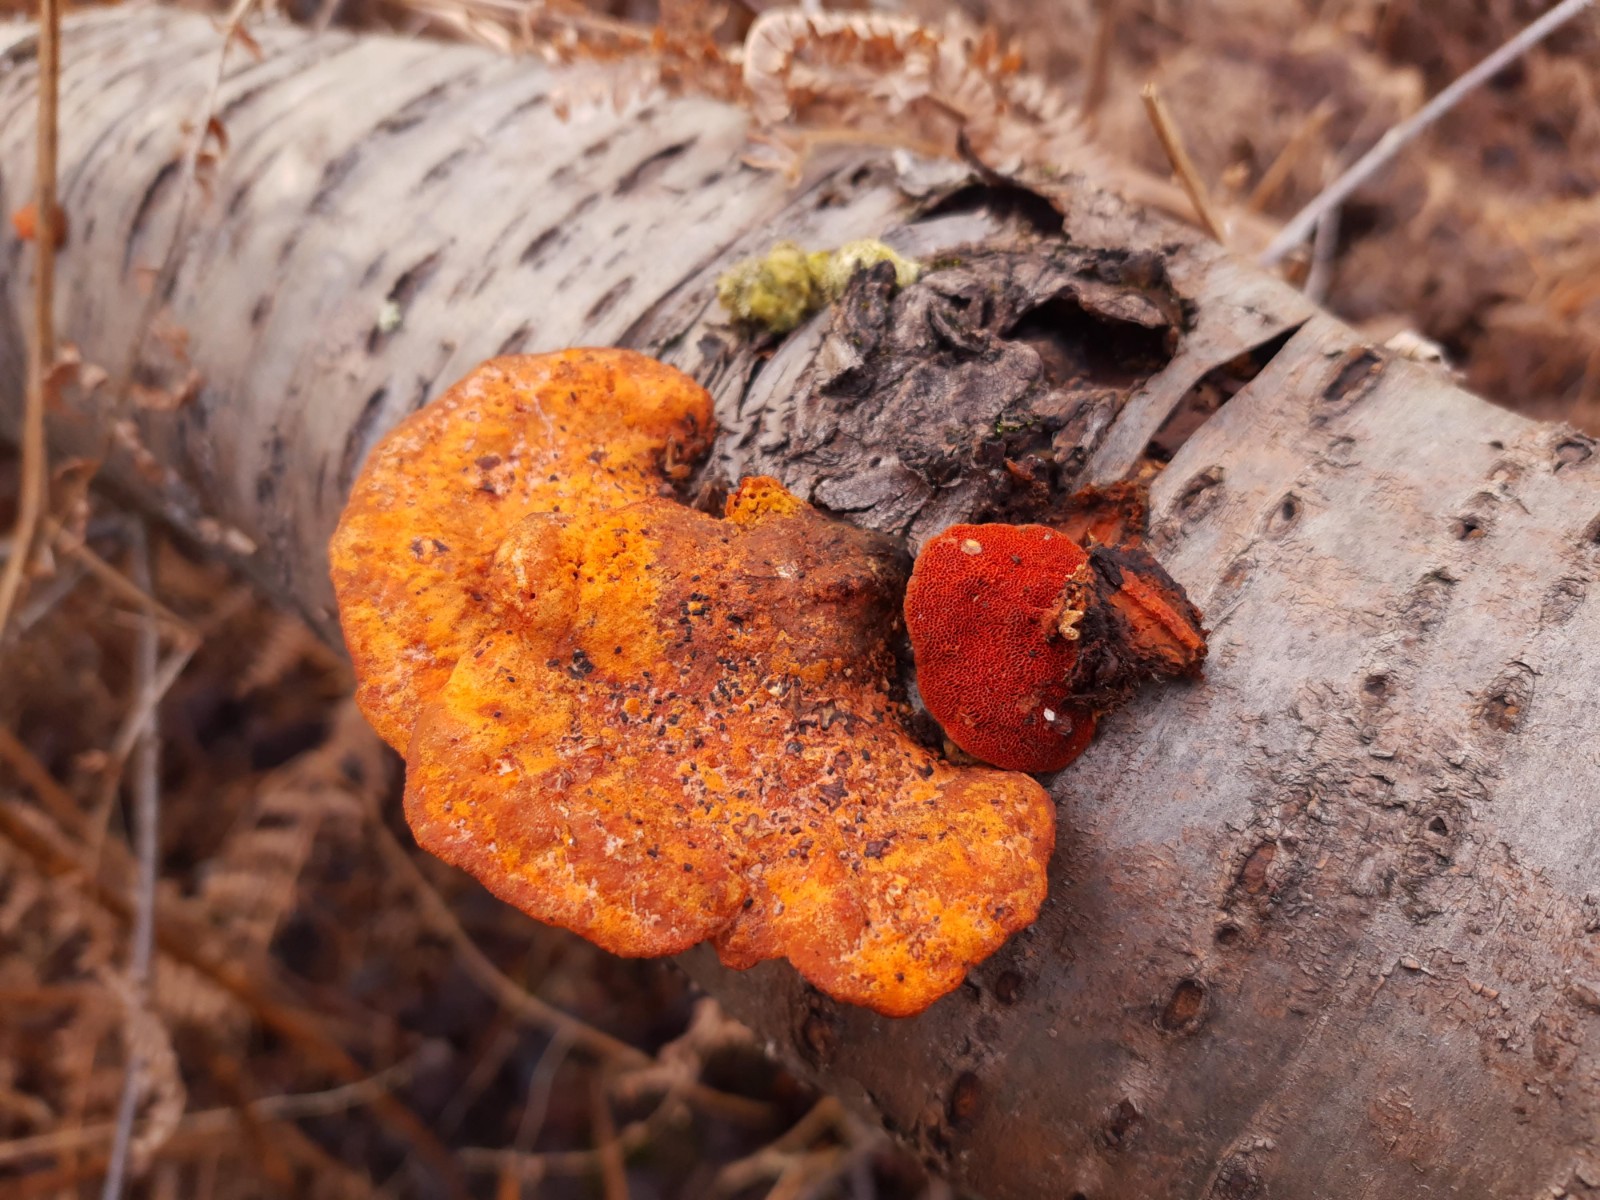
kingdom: Fungi
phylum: Basidiomycota
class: Agaricomycetes
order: Polyporales
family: Polyporaceae
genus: Trametes
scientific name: Trametes cinnabarina
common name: cinnoberporesvamp
